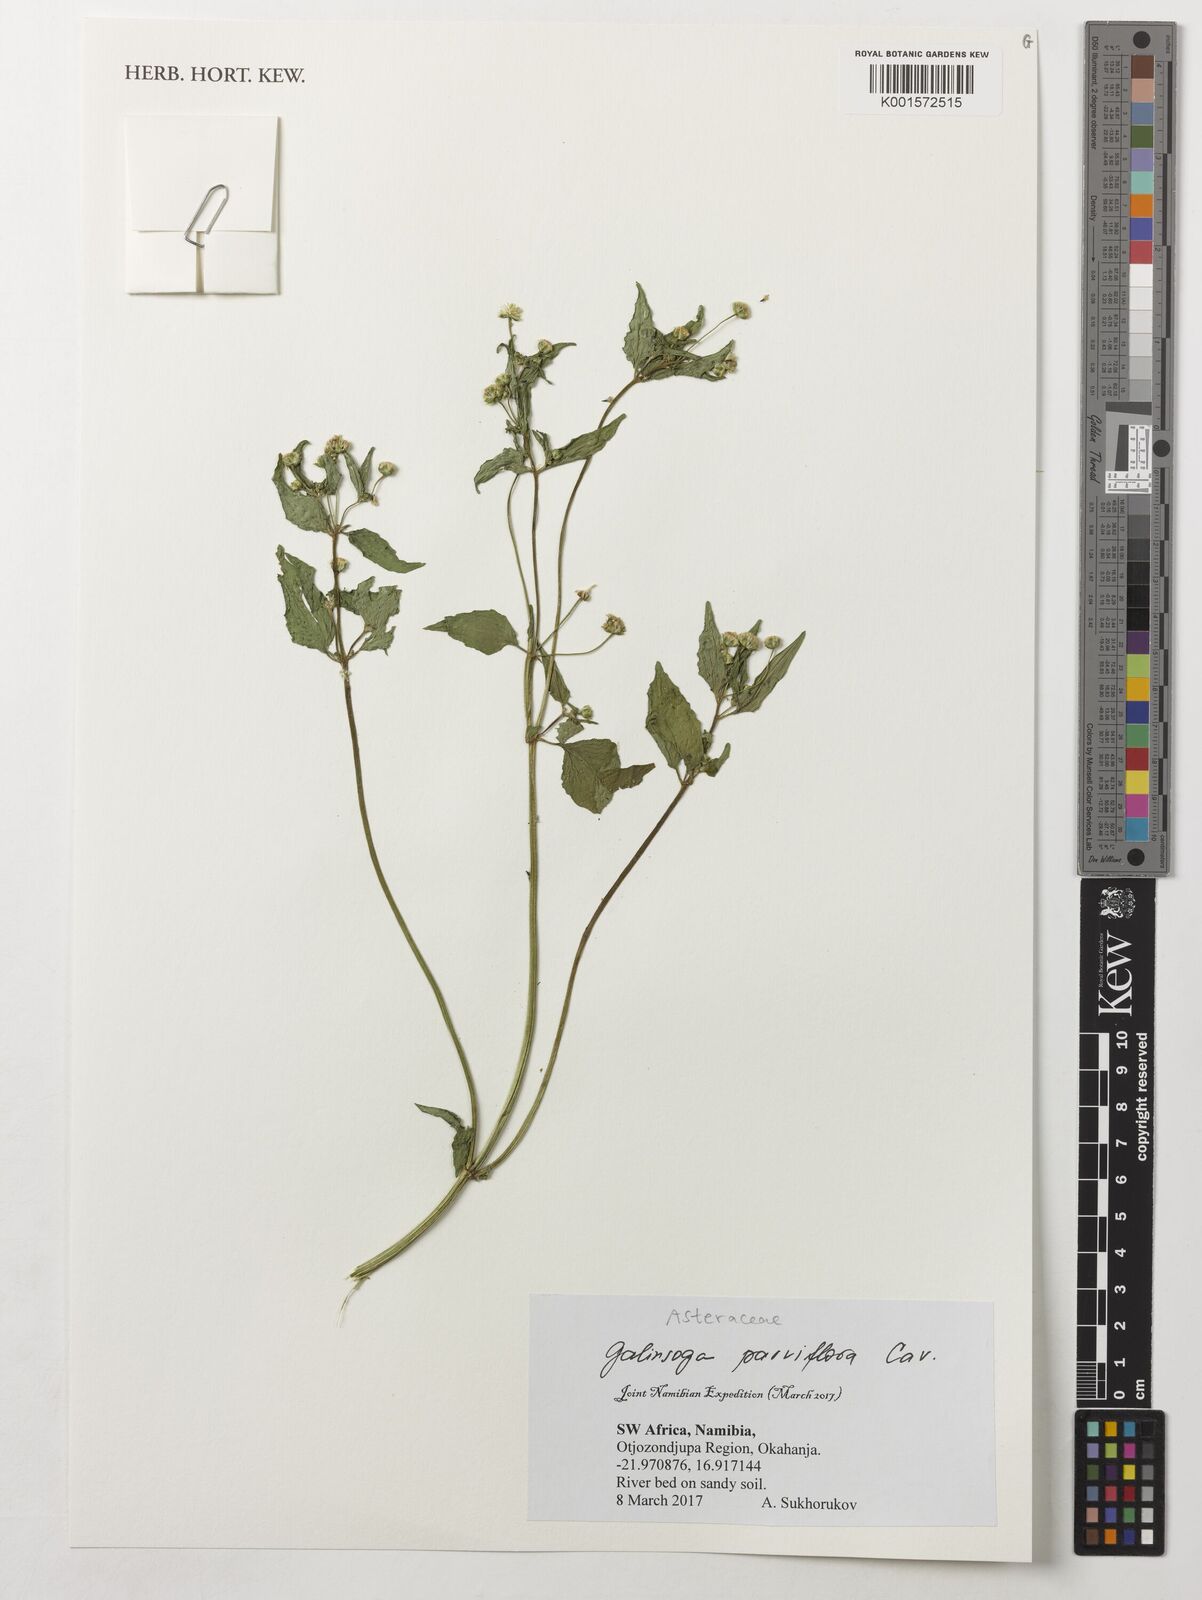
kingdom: Plantae
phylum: Tracheophyta
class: Magnoliopsida
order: Asterales
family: Asteraceae
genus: Galinsoga
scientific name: Galinsoga parviflora
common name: Gallant soldier
